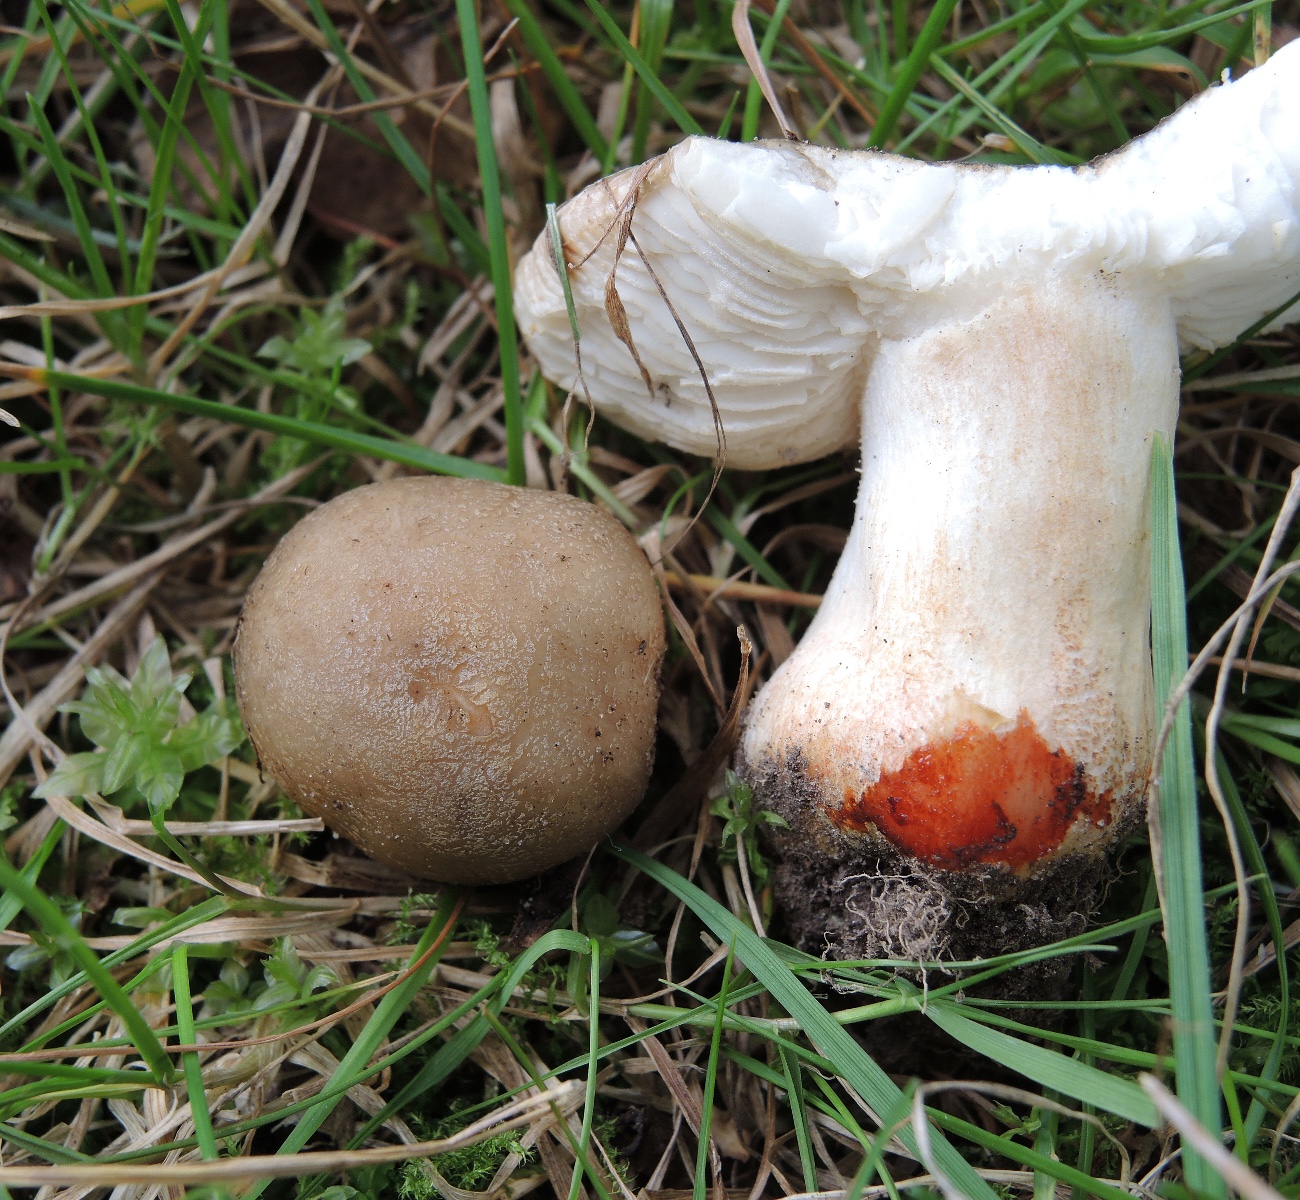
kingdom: Fungi
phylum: Basidiomycota
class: Agaricomycetes
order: Russulales
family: Russulaceae
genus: Russula
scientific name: Russula insignis
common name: gulfodet kam-skørhat
